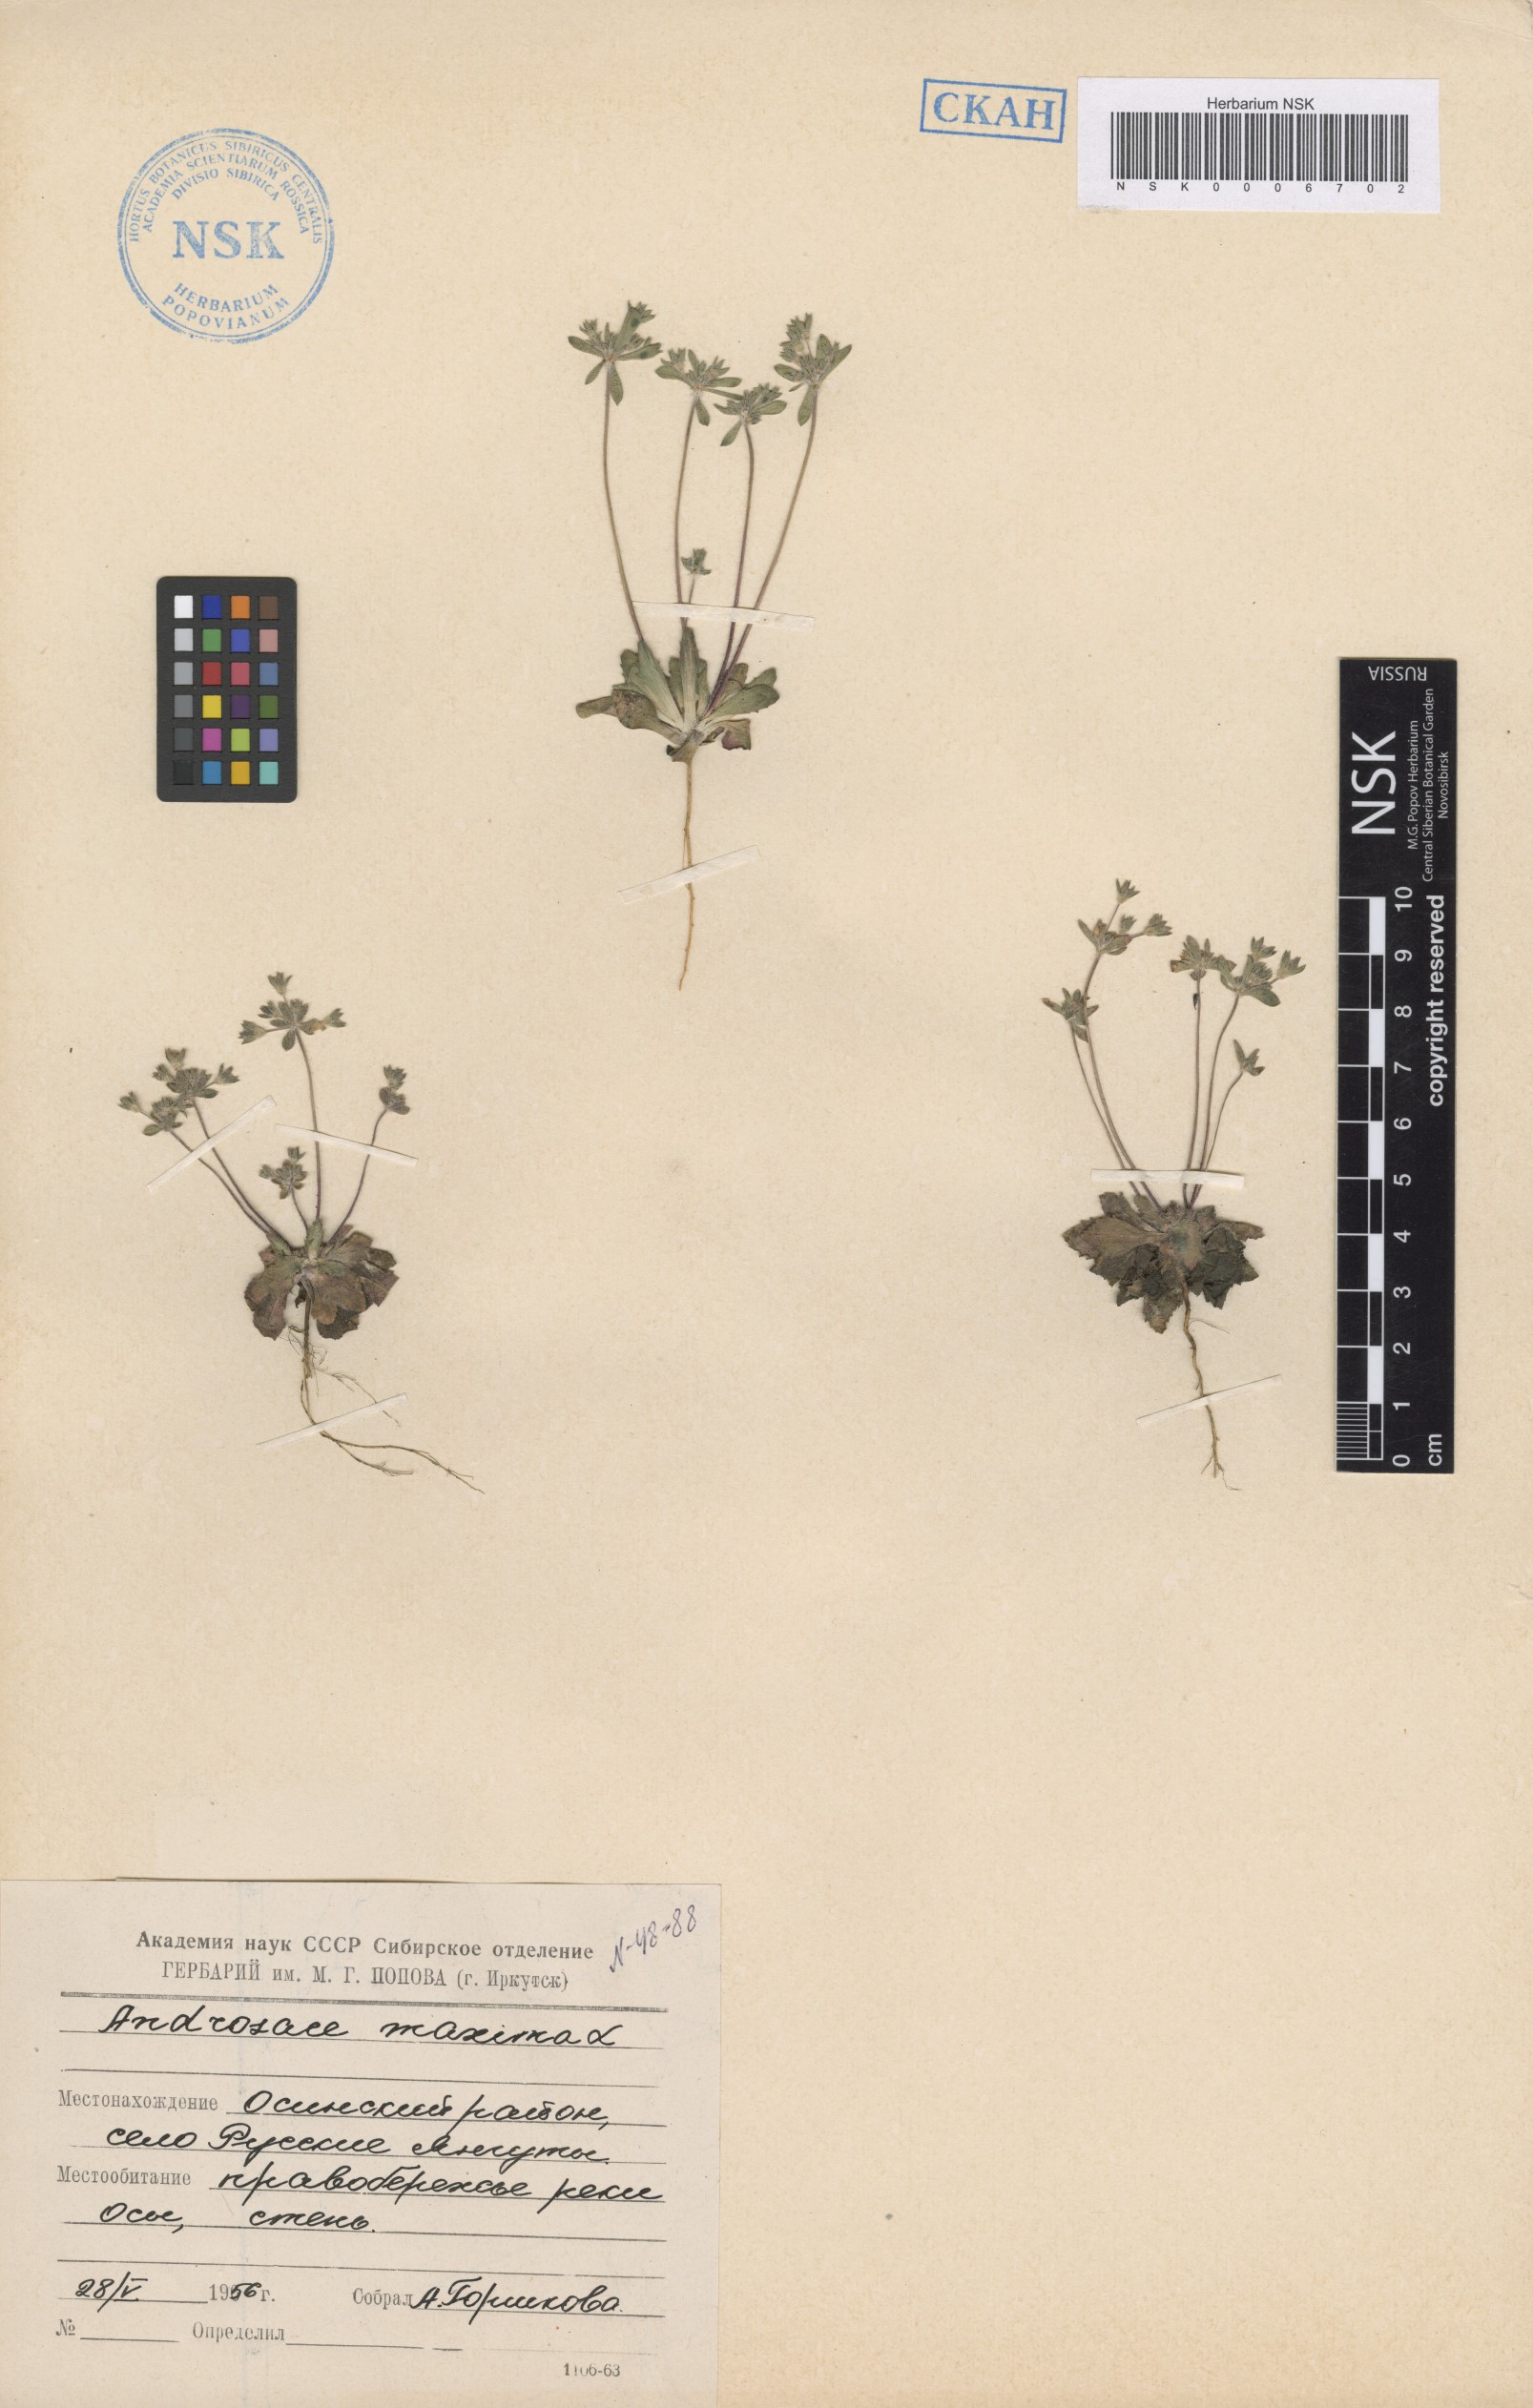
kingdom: Plantae
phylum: Tracheophyta
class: Magnoliopsida
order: Ericales
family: Primulaceae
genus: Androsace
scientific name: Androsace maxima
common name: Annual androsace
